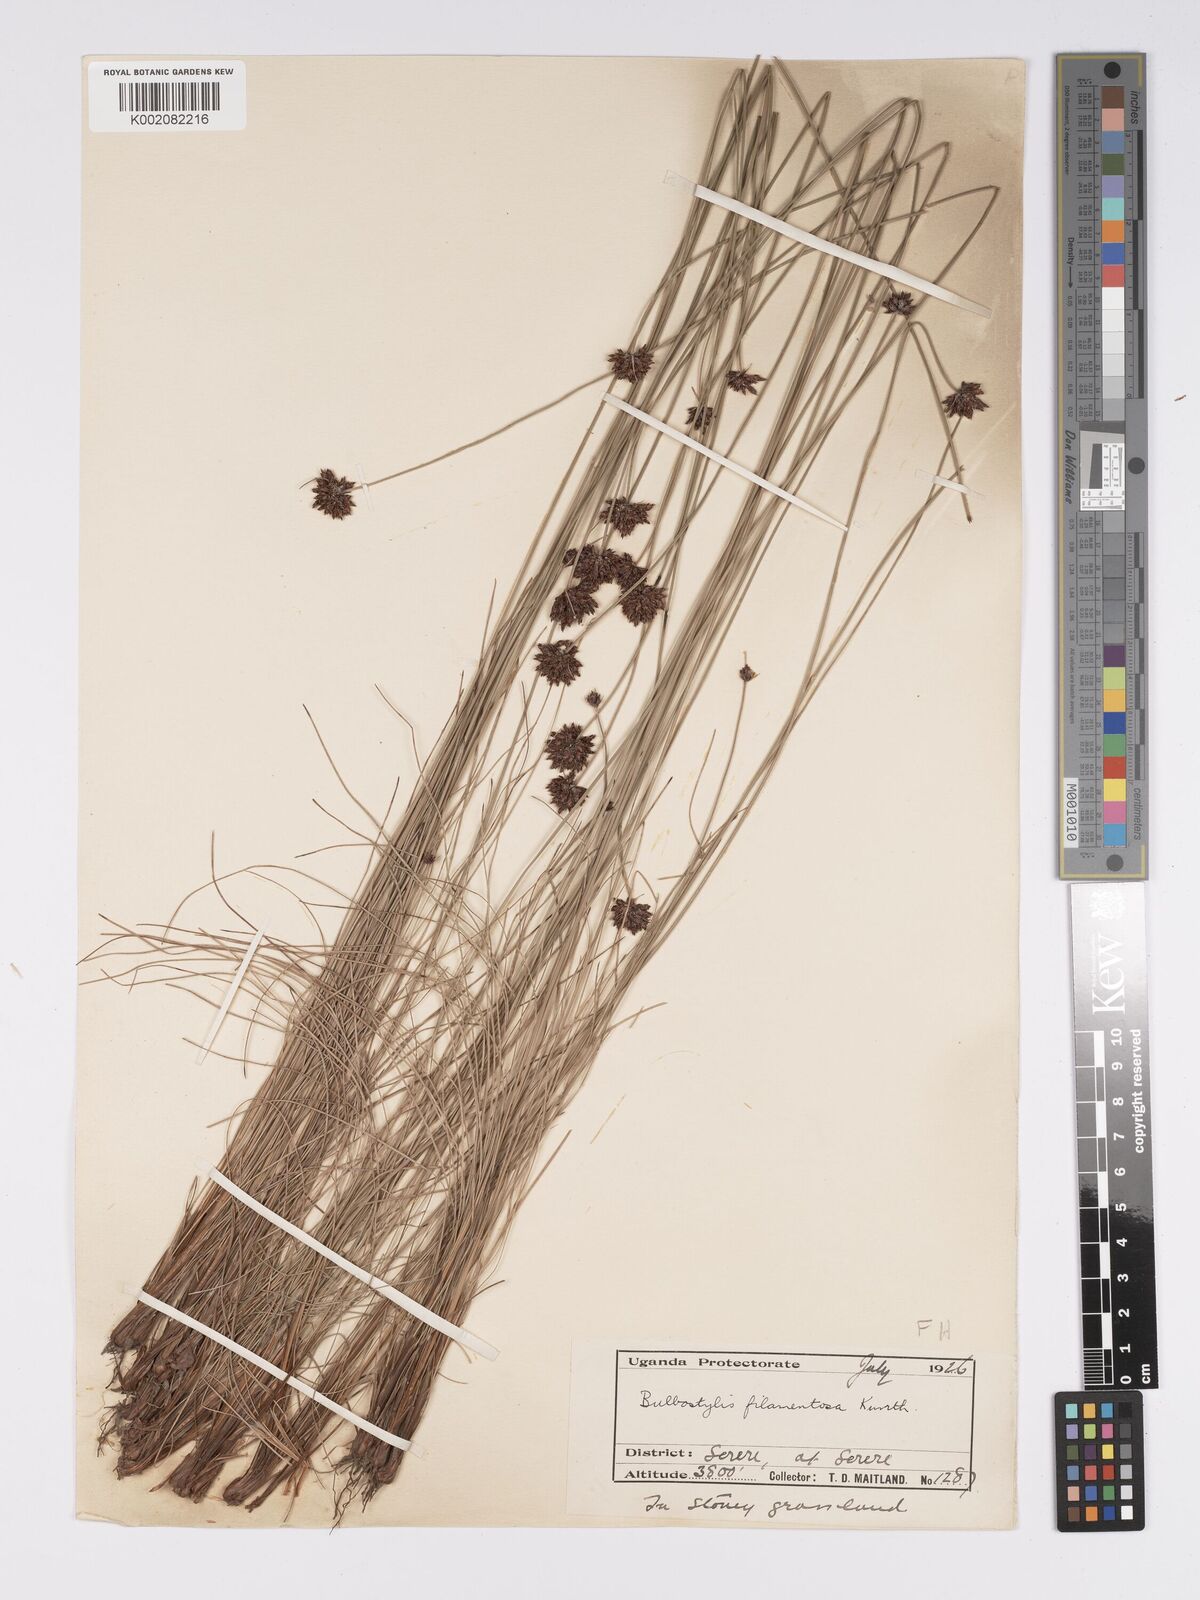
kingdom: Plantae
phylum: Tracheophyta
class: Liliopsida
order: Poales
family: Cyperaceae
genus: Bulbostylis
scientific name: Bulbostylis scabricaulis
